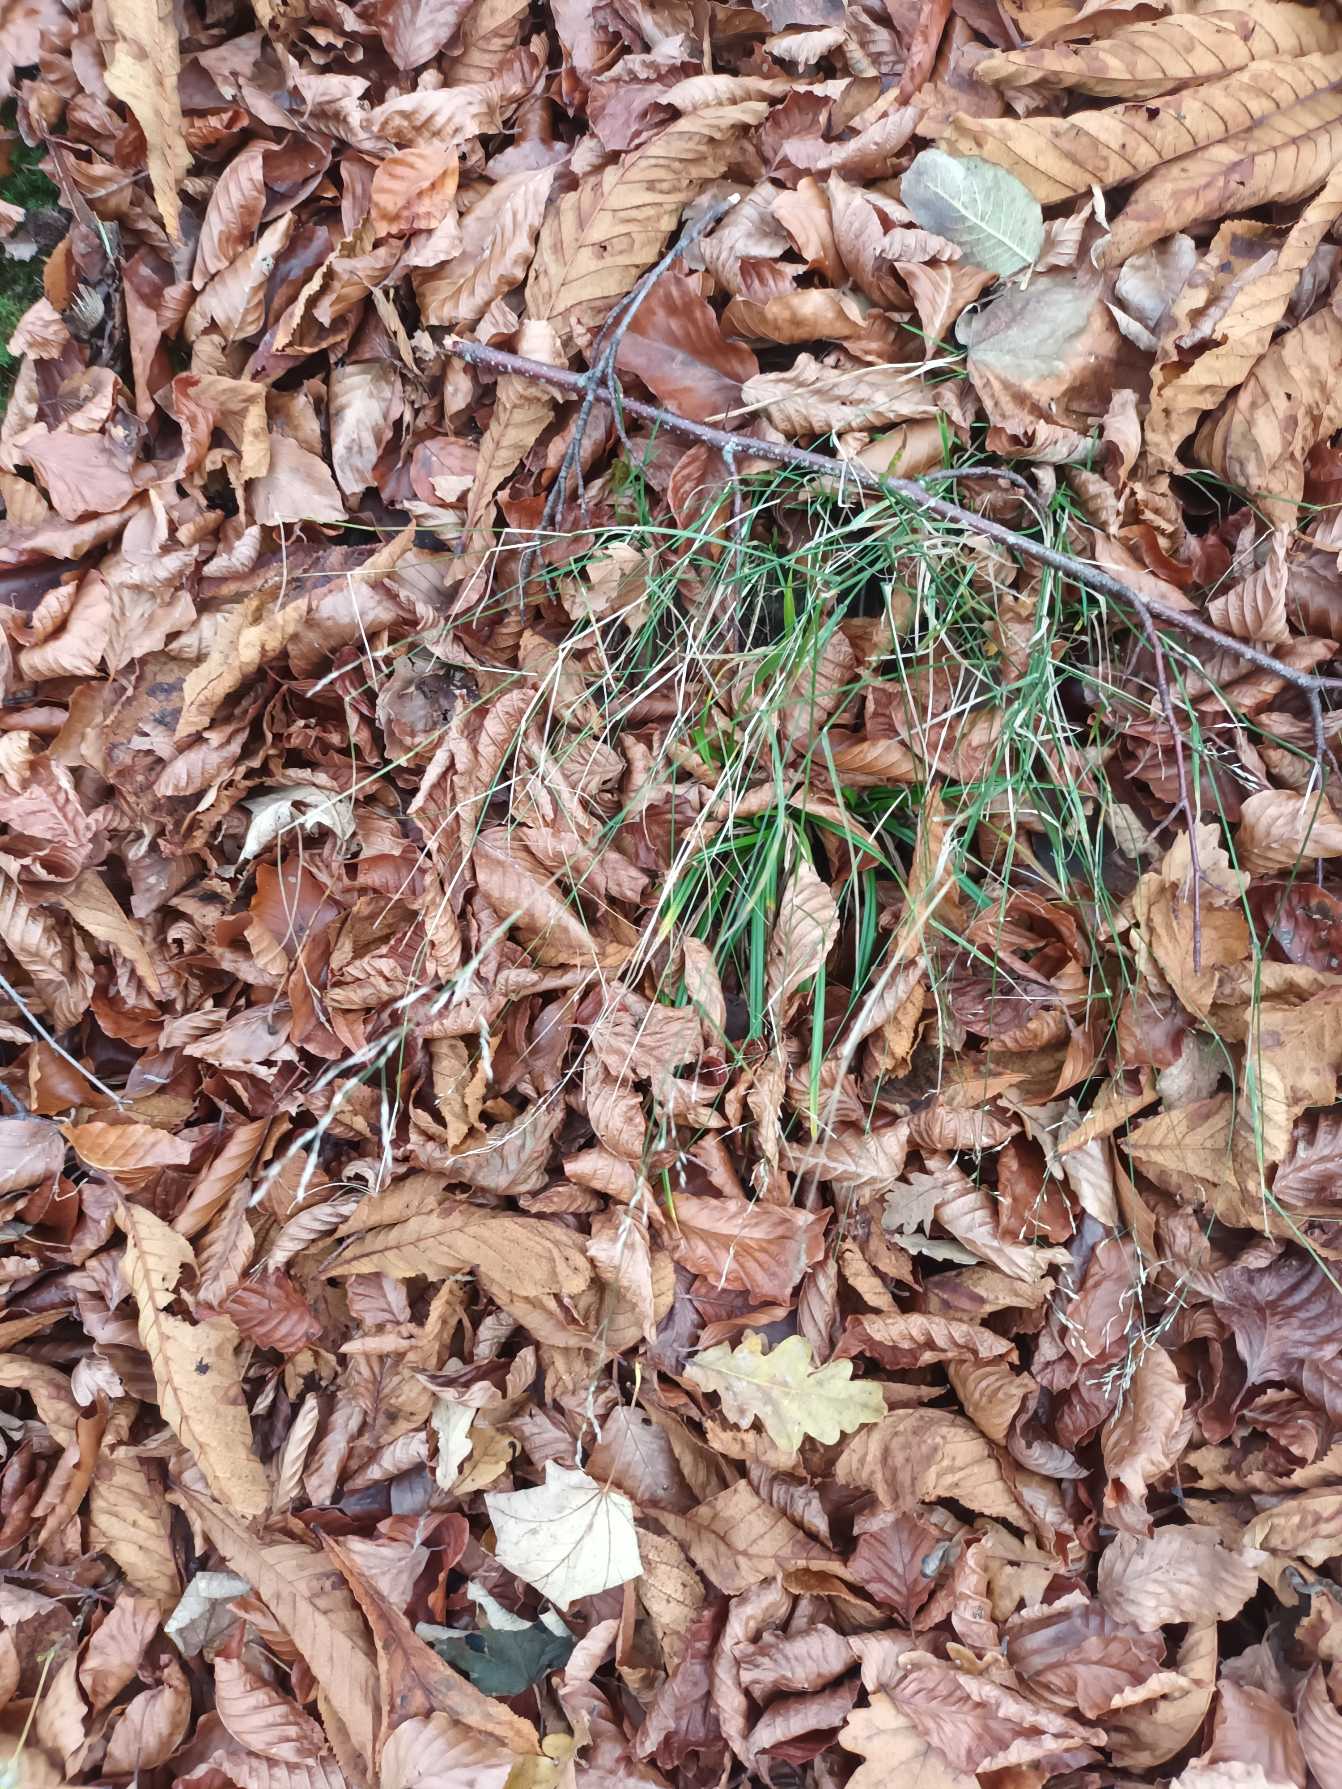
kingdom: Plantae
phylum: Tracheophyta
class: Liliopsida
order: Poales
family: Poaceae
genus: Poa
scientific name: Poa nemoralis
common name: Lund-rapgræs
